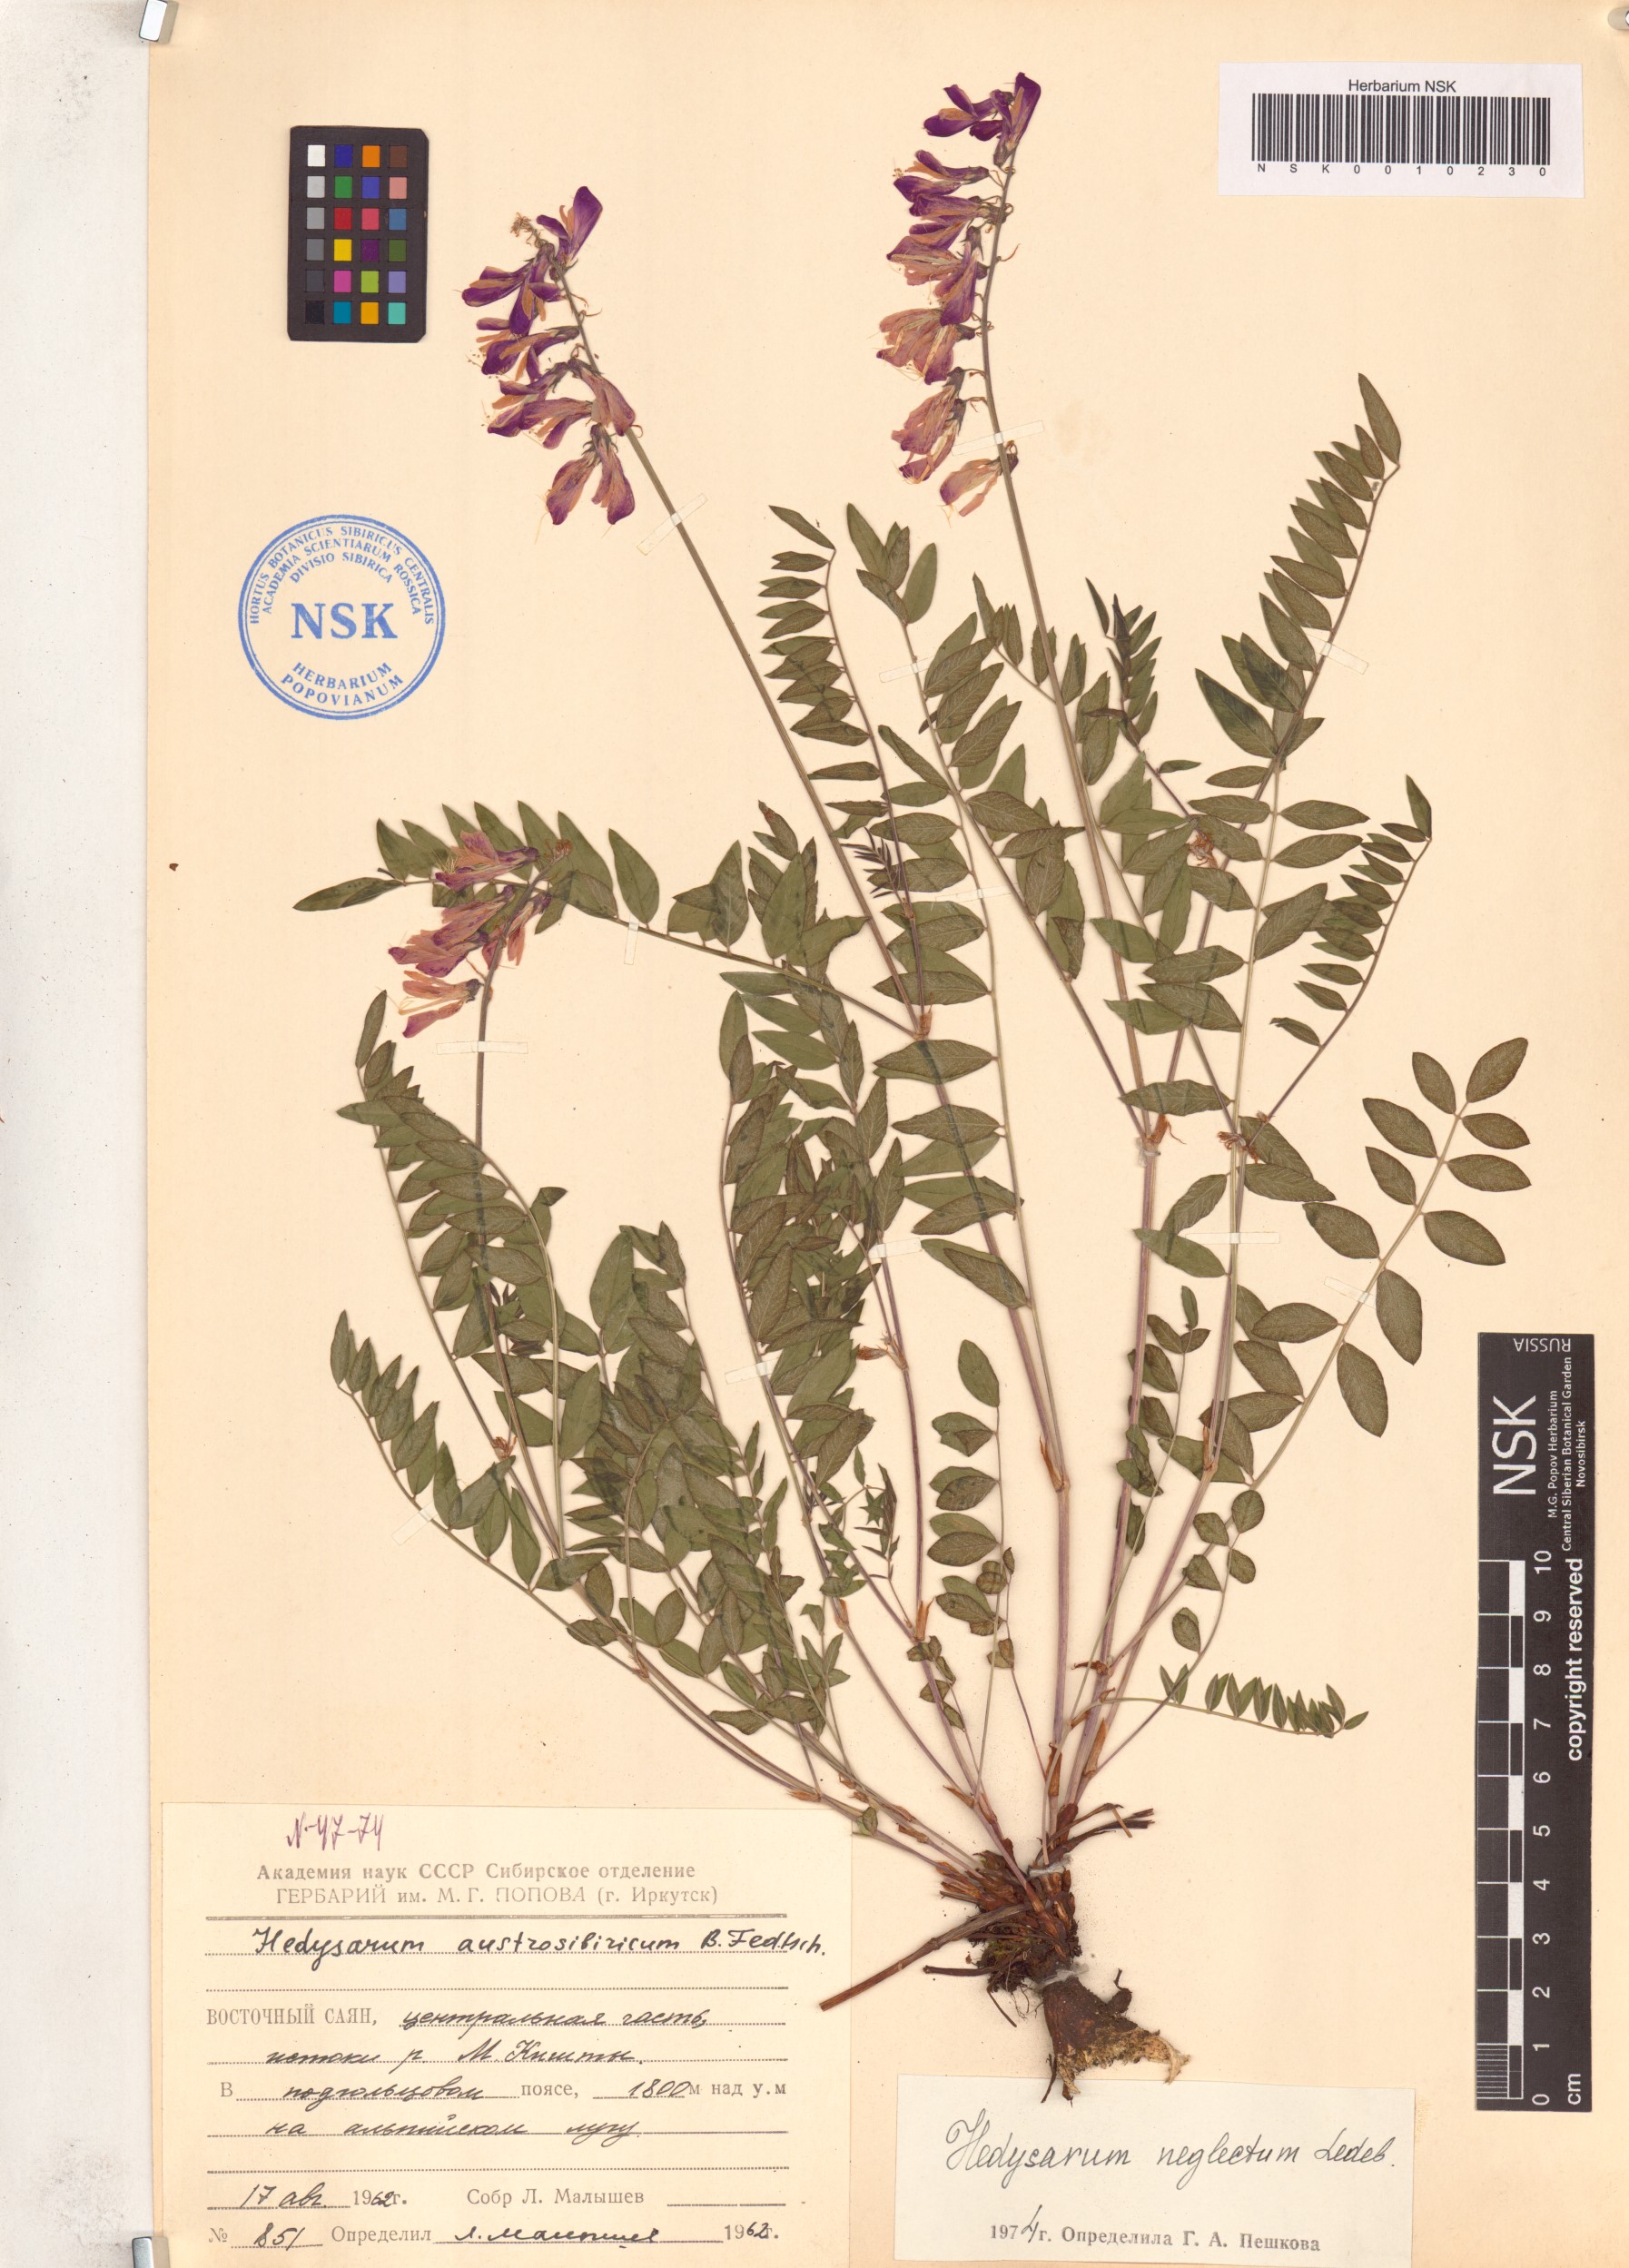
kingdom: Plantae
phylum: Tracheophyta
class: Magnoliopsida
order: Fabales
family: Fabaceae
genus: Hedysarum
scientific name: Hedysarum neglectum
